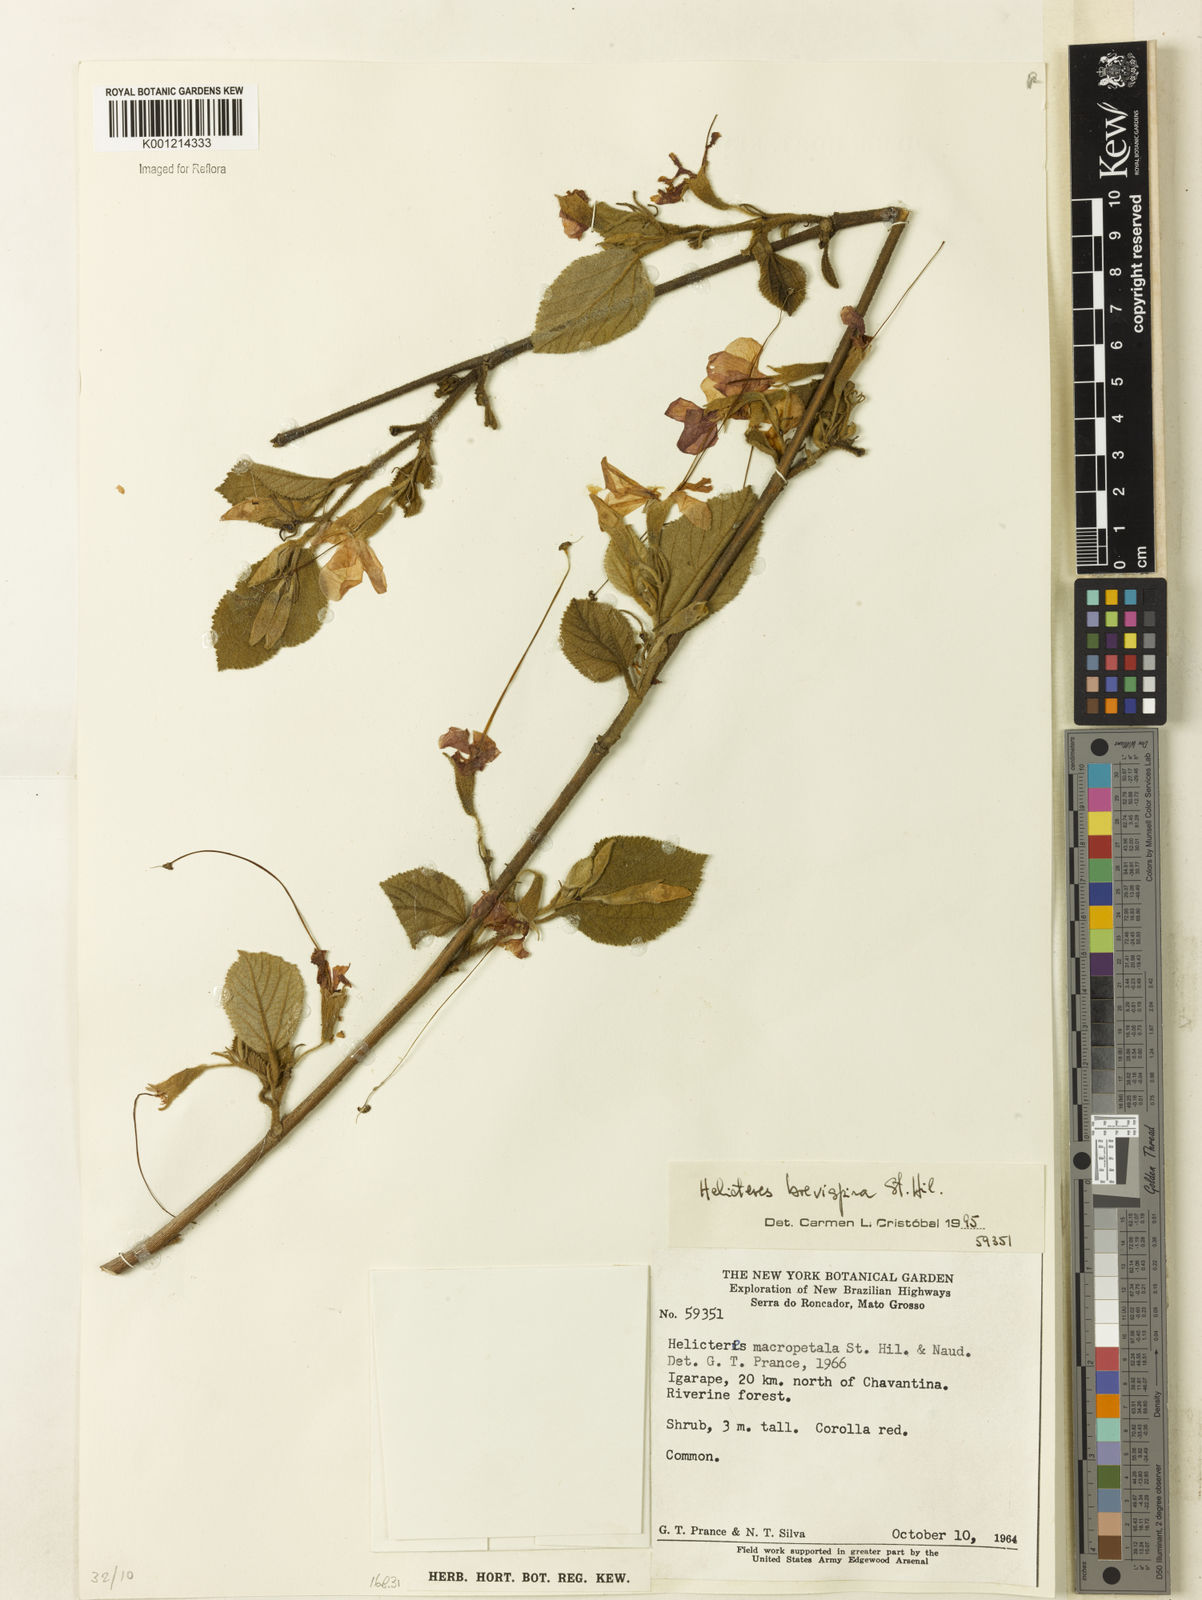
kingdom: Plantae
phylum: Tracheophyta
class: Magnoliopsida
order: Malvales
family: Malvaceae
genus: Helicteres
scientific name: Helicteres
